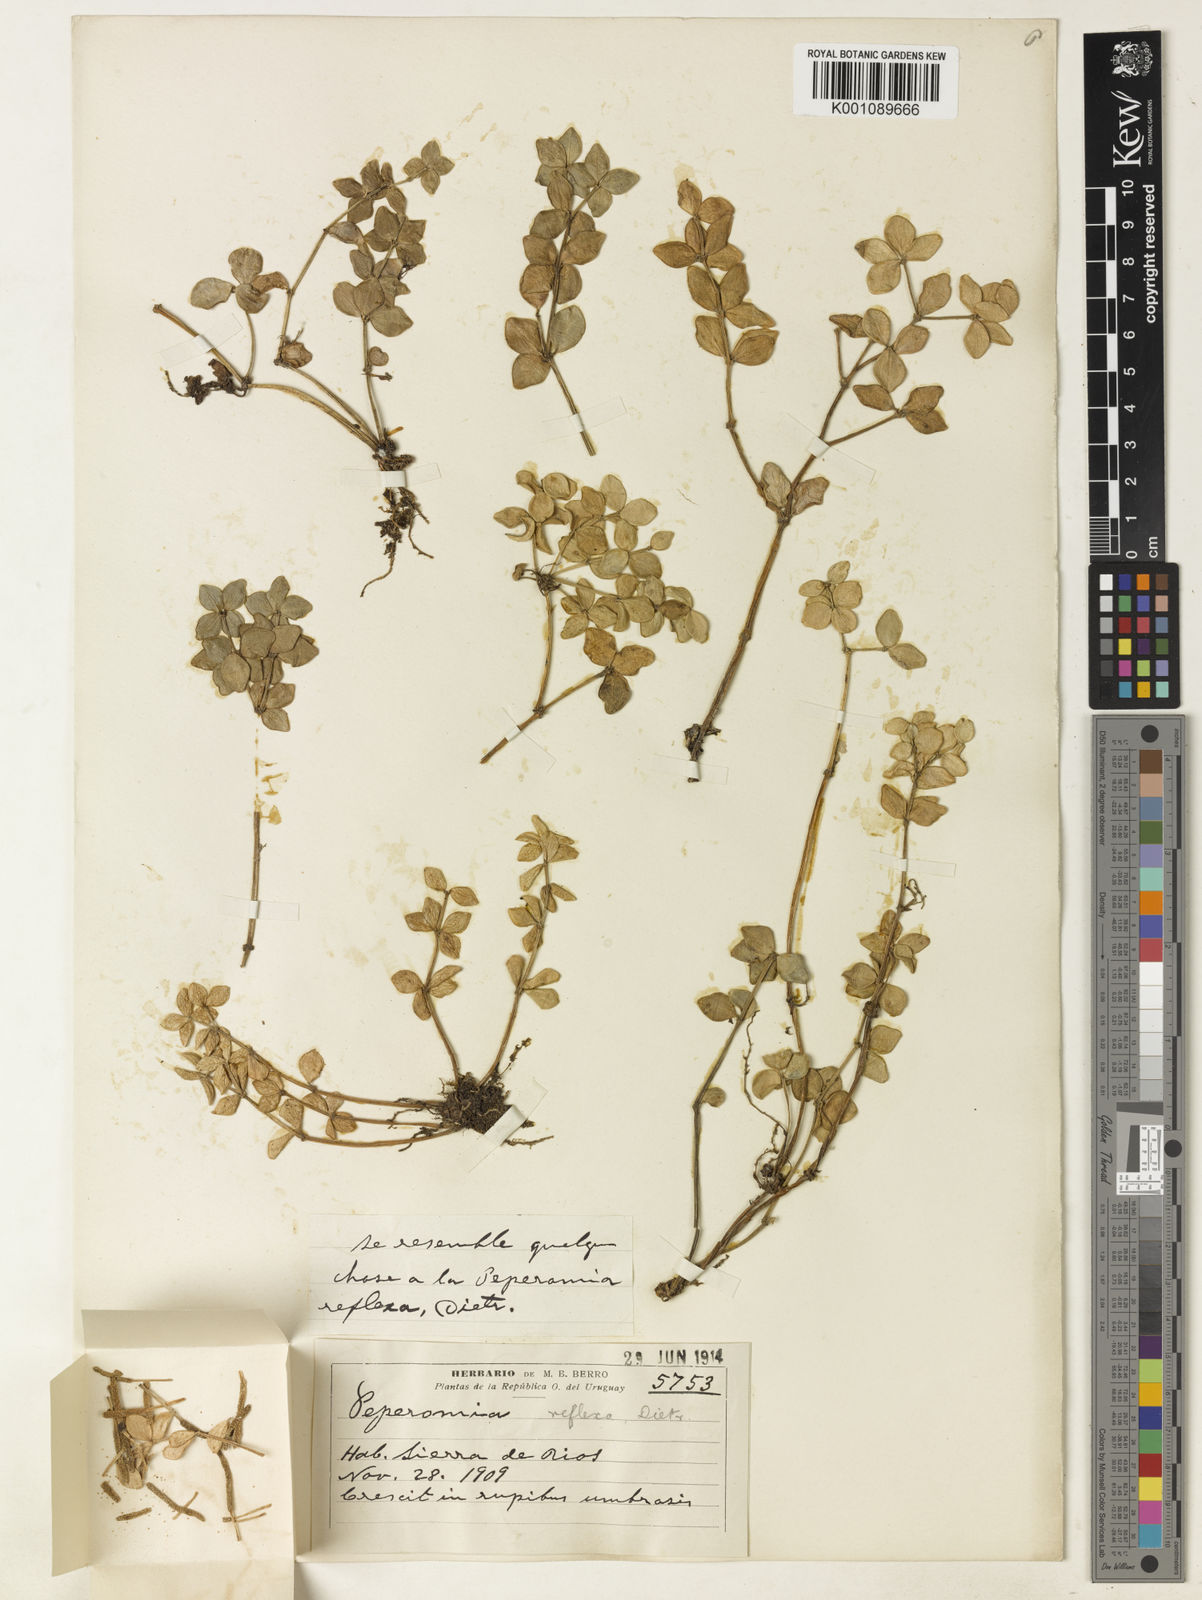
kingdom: Plantae
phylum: Tracheophyta
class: Magnoliopsida
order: Piperales
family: Piperaceae
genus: Peperomia
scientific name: Peperomia tetraphylla
